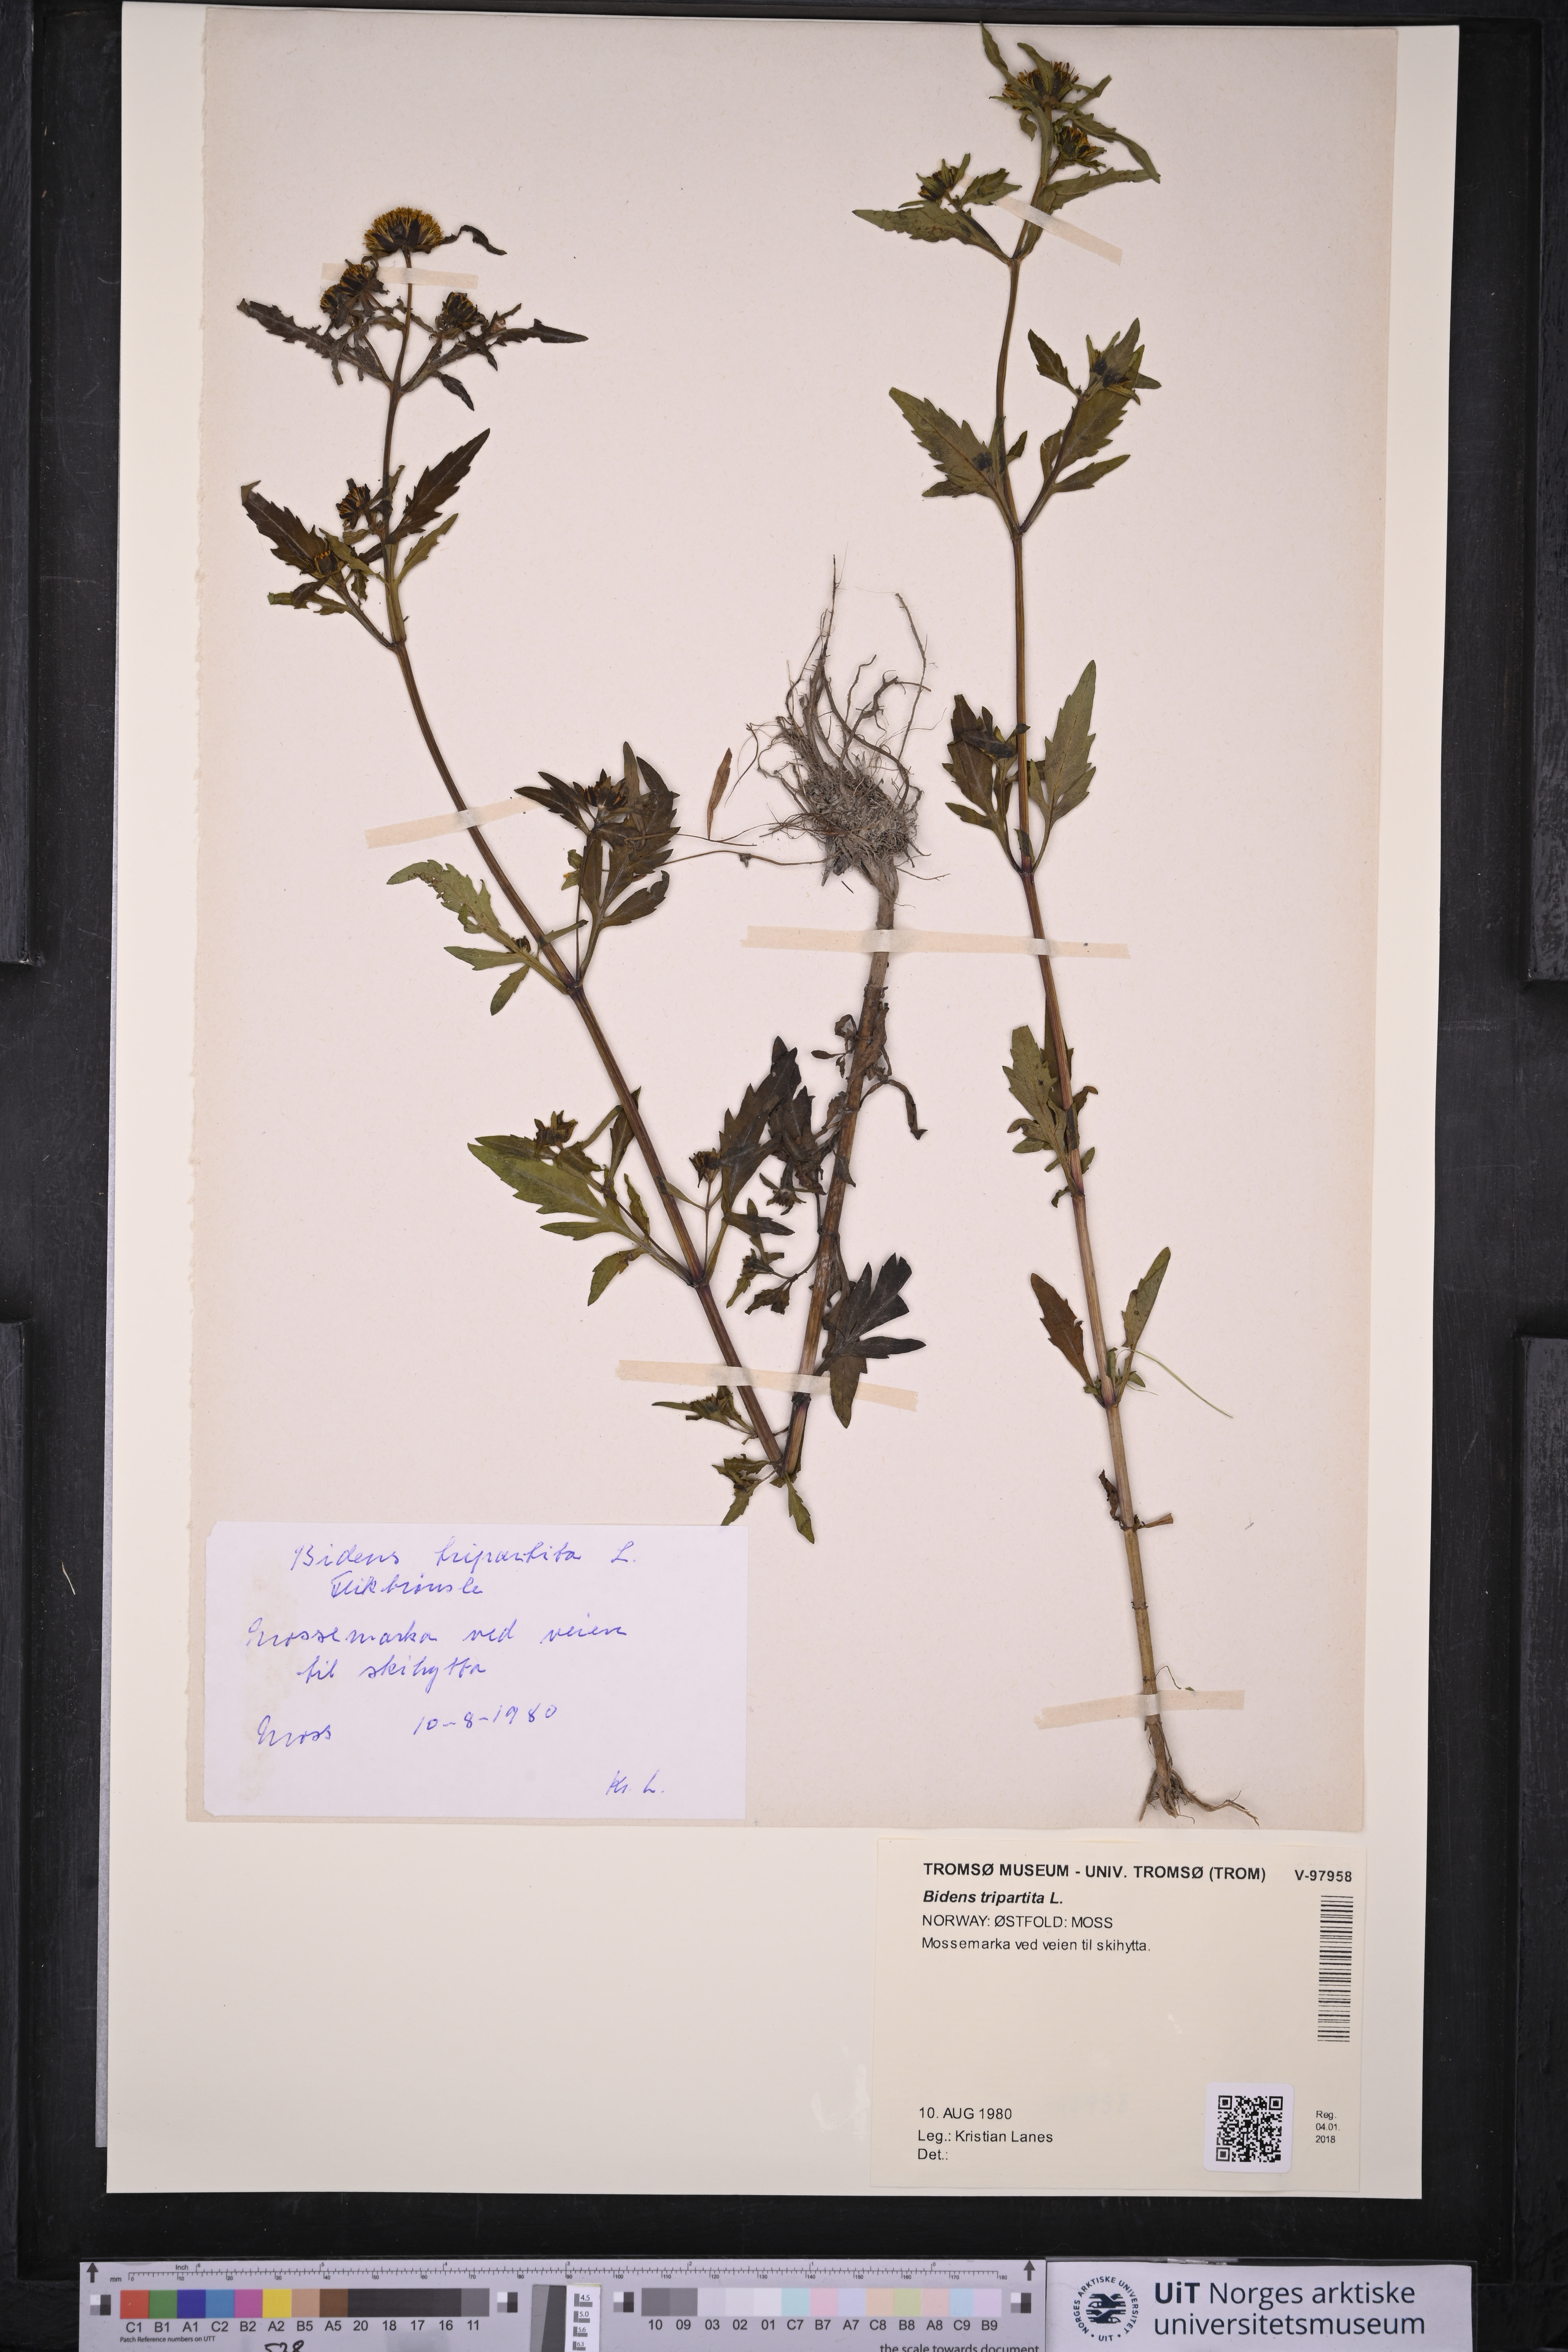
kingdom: Plantae
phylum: Tracheophyta
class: Magnoliopsida
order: Asterales
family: Asteraceae
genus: Bidens
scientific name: Bidens tripartita
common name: Trifid bur-marigold
